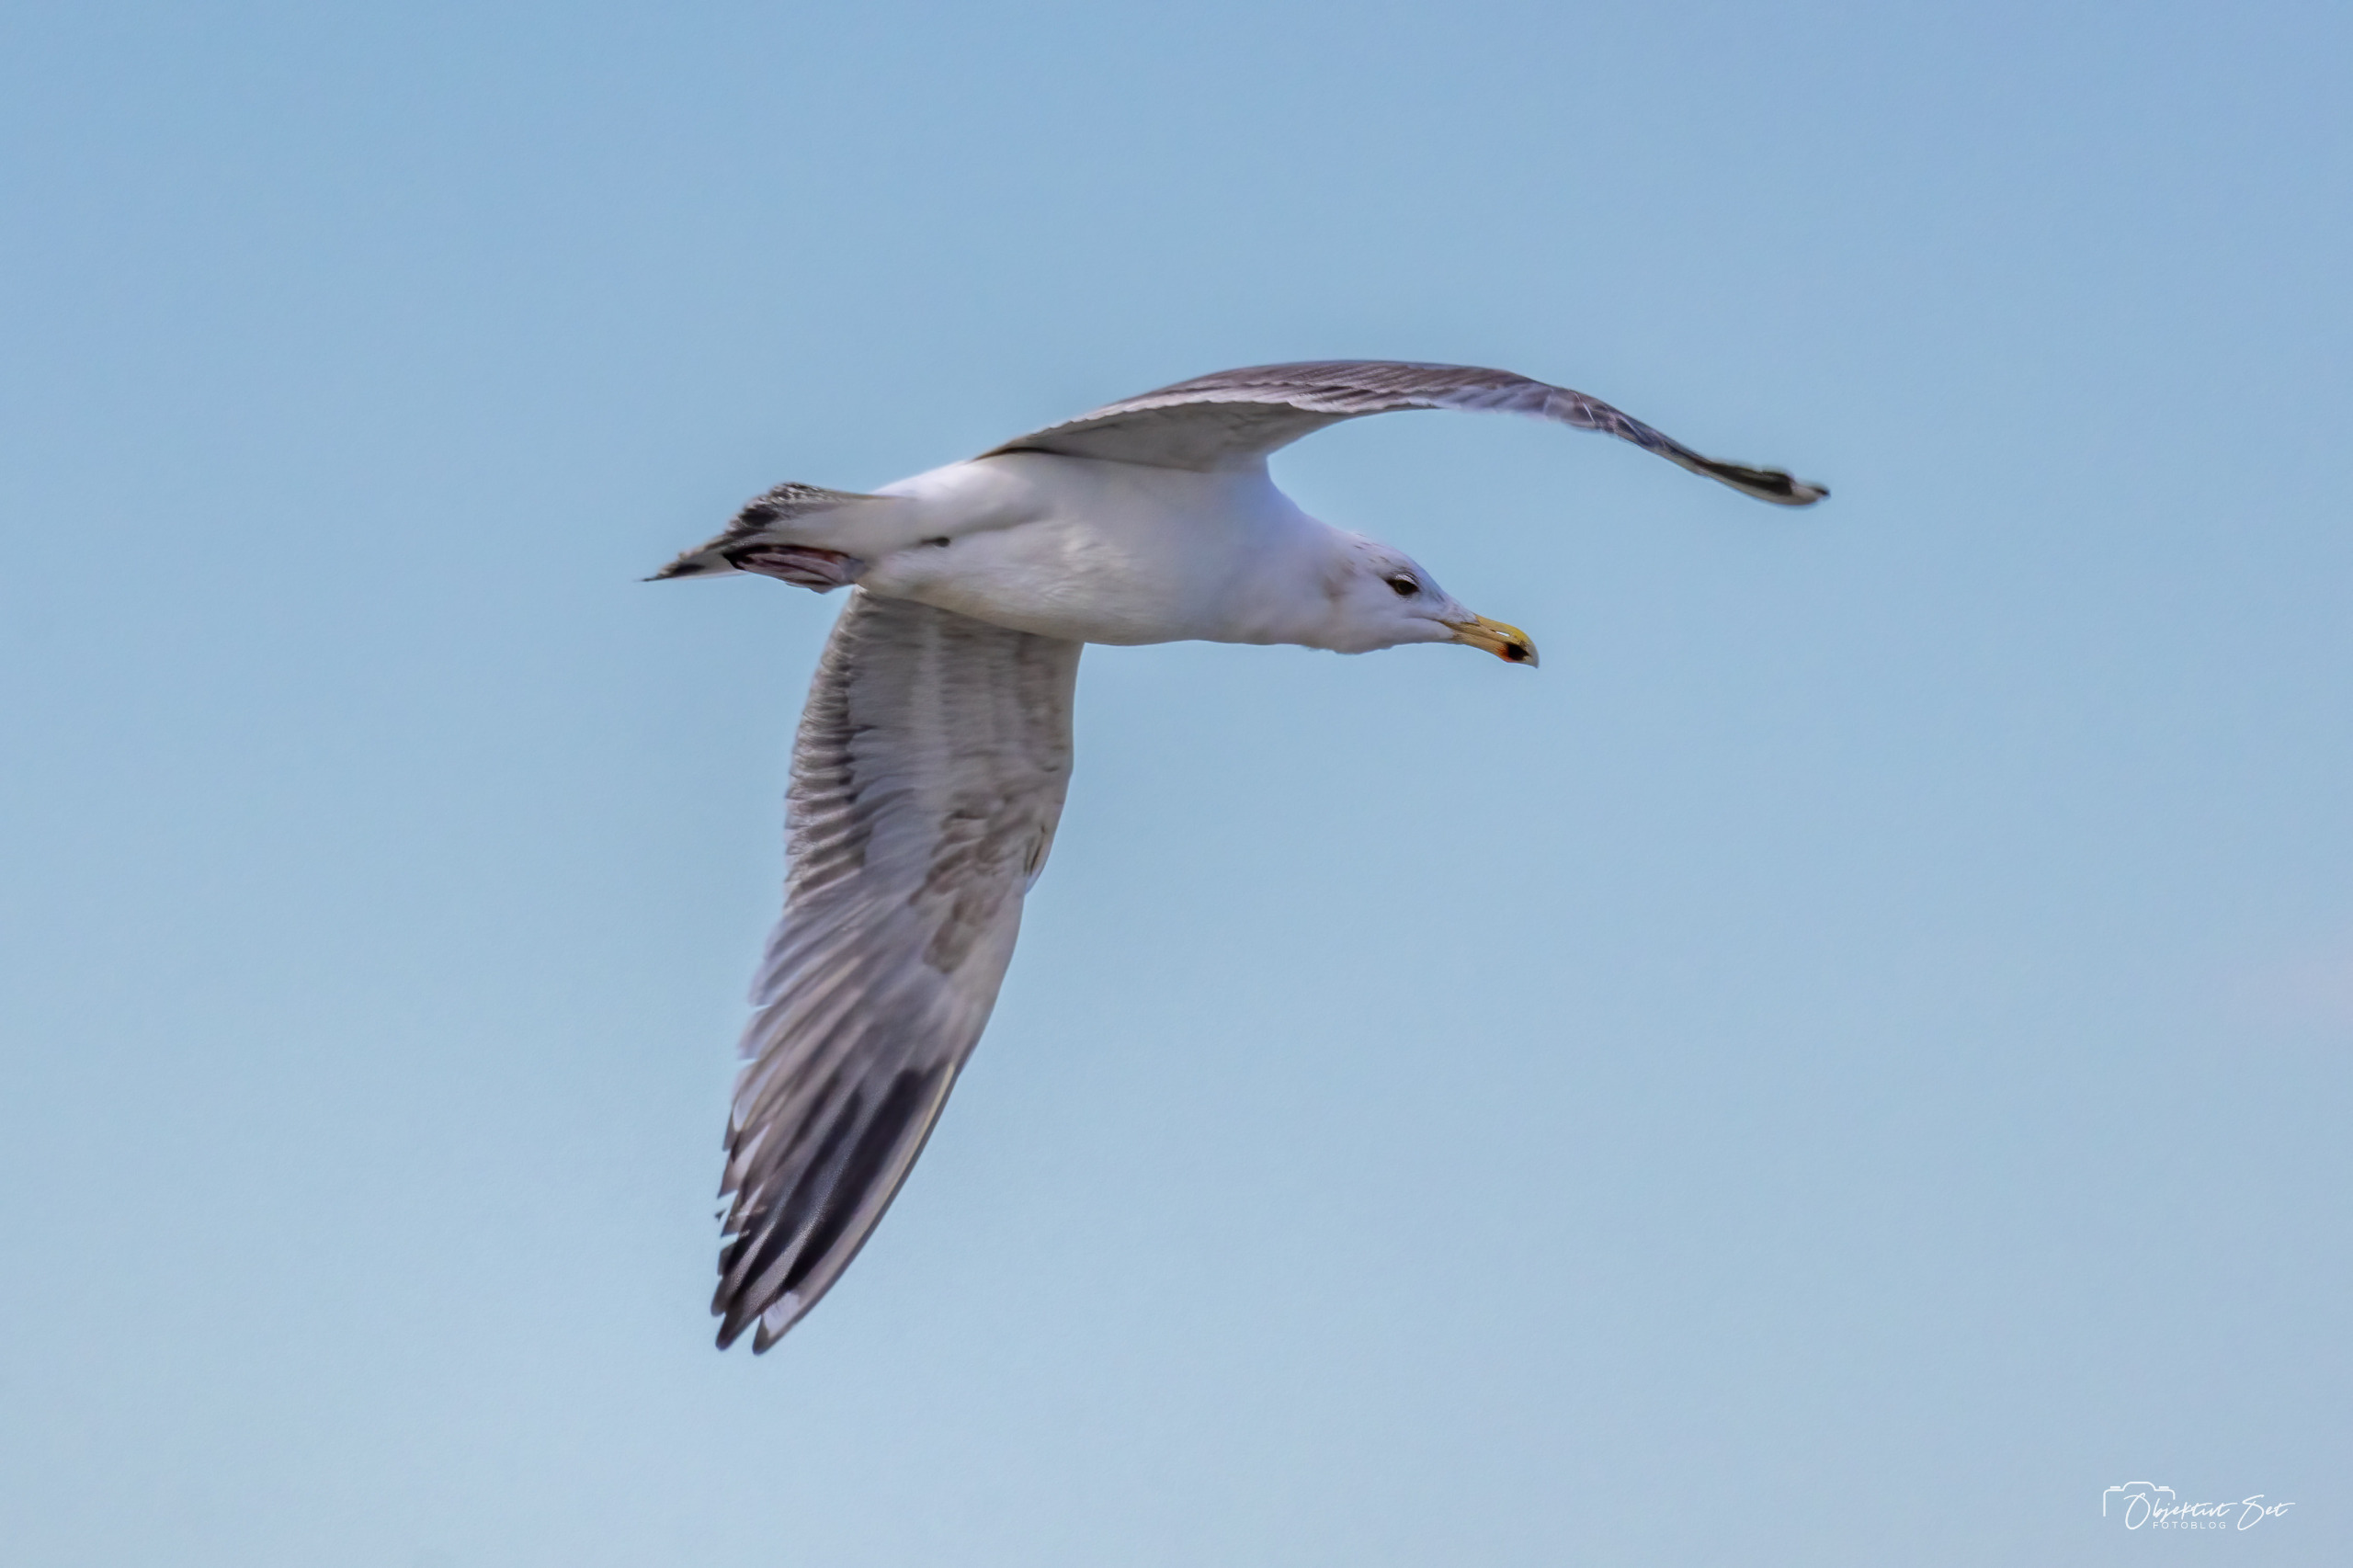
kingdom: Animalia
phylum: Chordata
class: Aves
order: Charadriiformes
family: Laridae
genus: Larus
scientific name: Larus argentatus
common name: Sølvmåge
